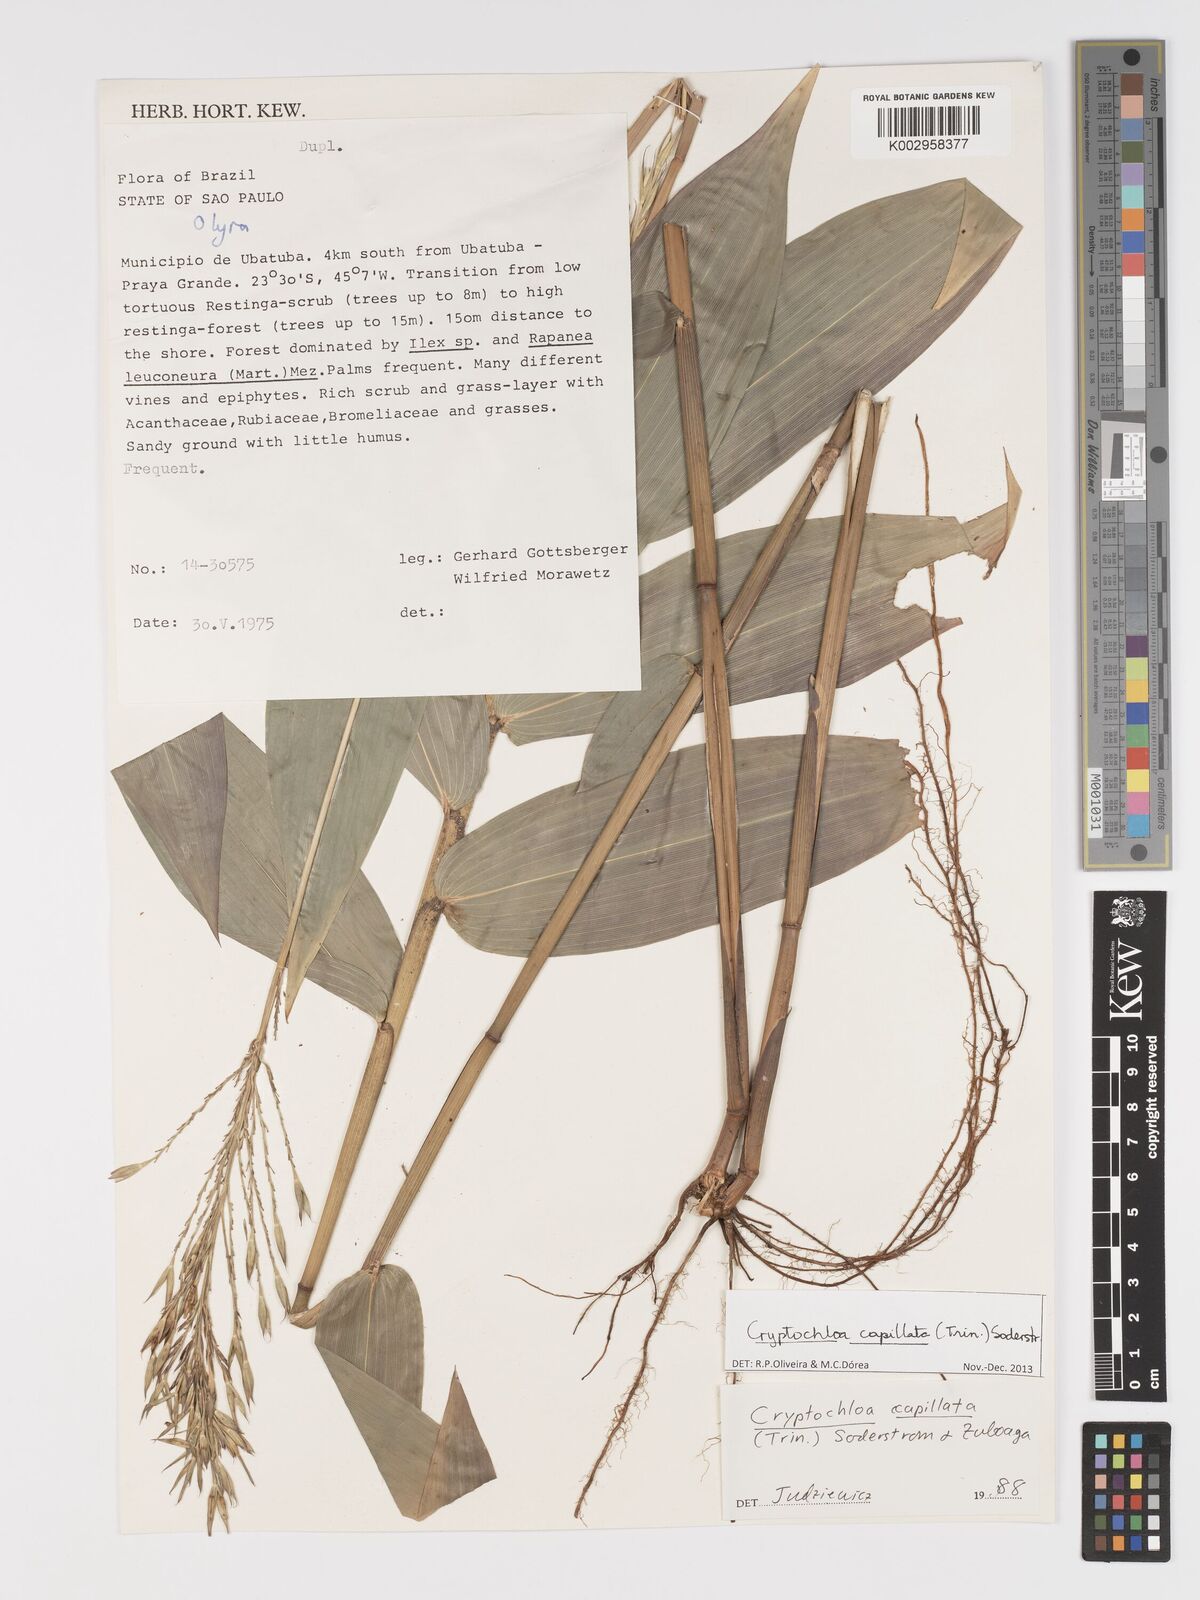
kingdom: Plantae
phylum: Tracheophyta
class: Liliopsida
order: Poales
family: Poaceae
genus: Cryptochloa
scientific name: Cryptochloa capillata
